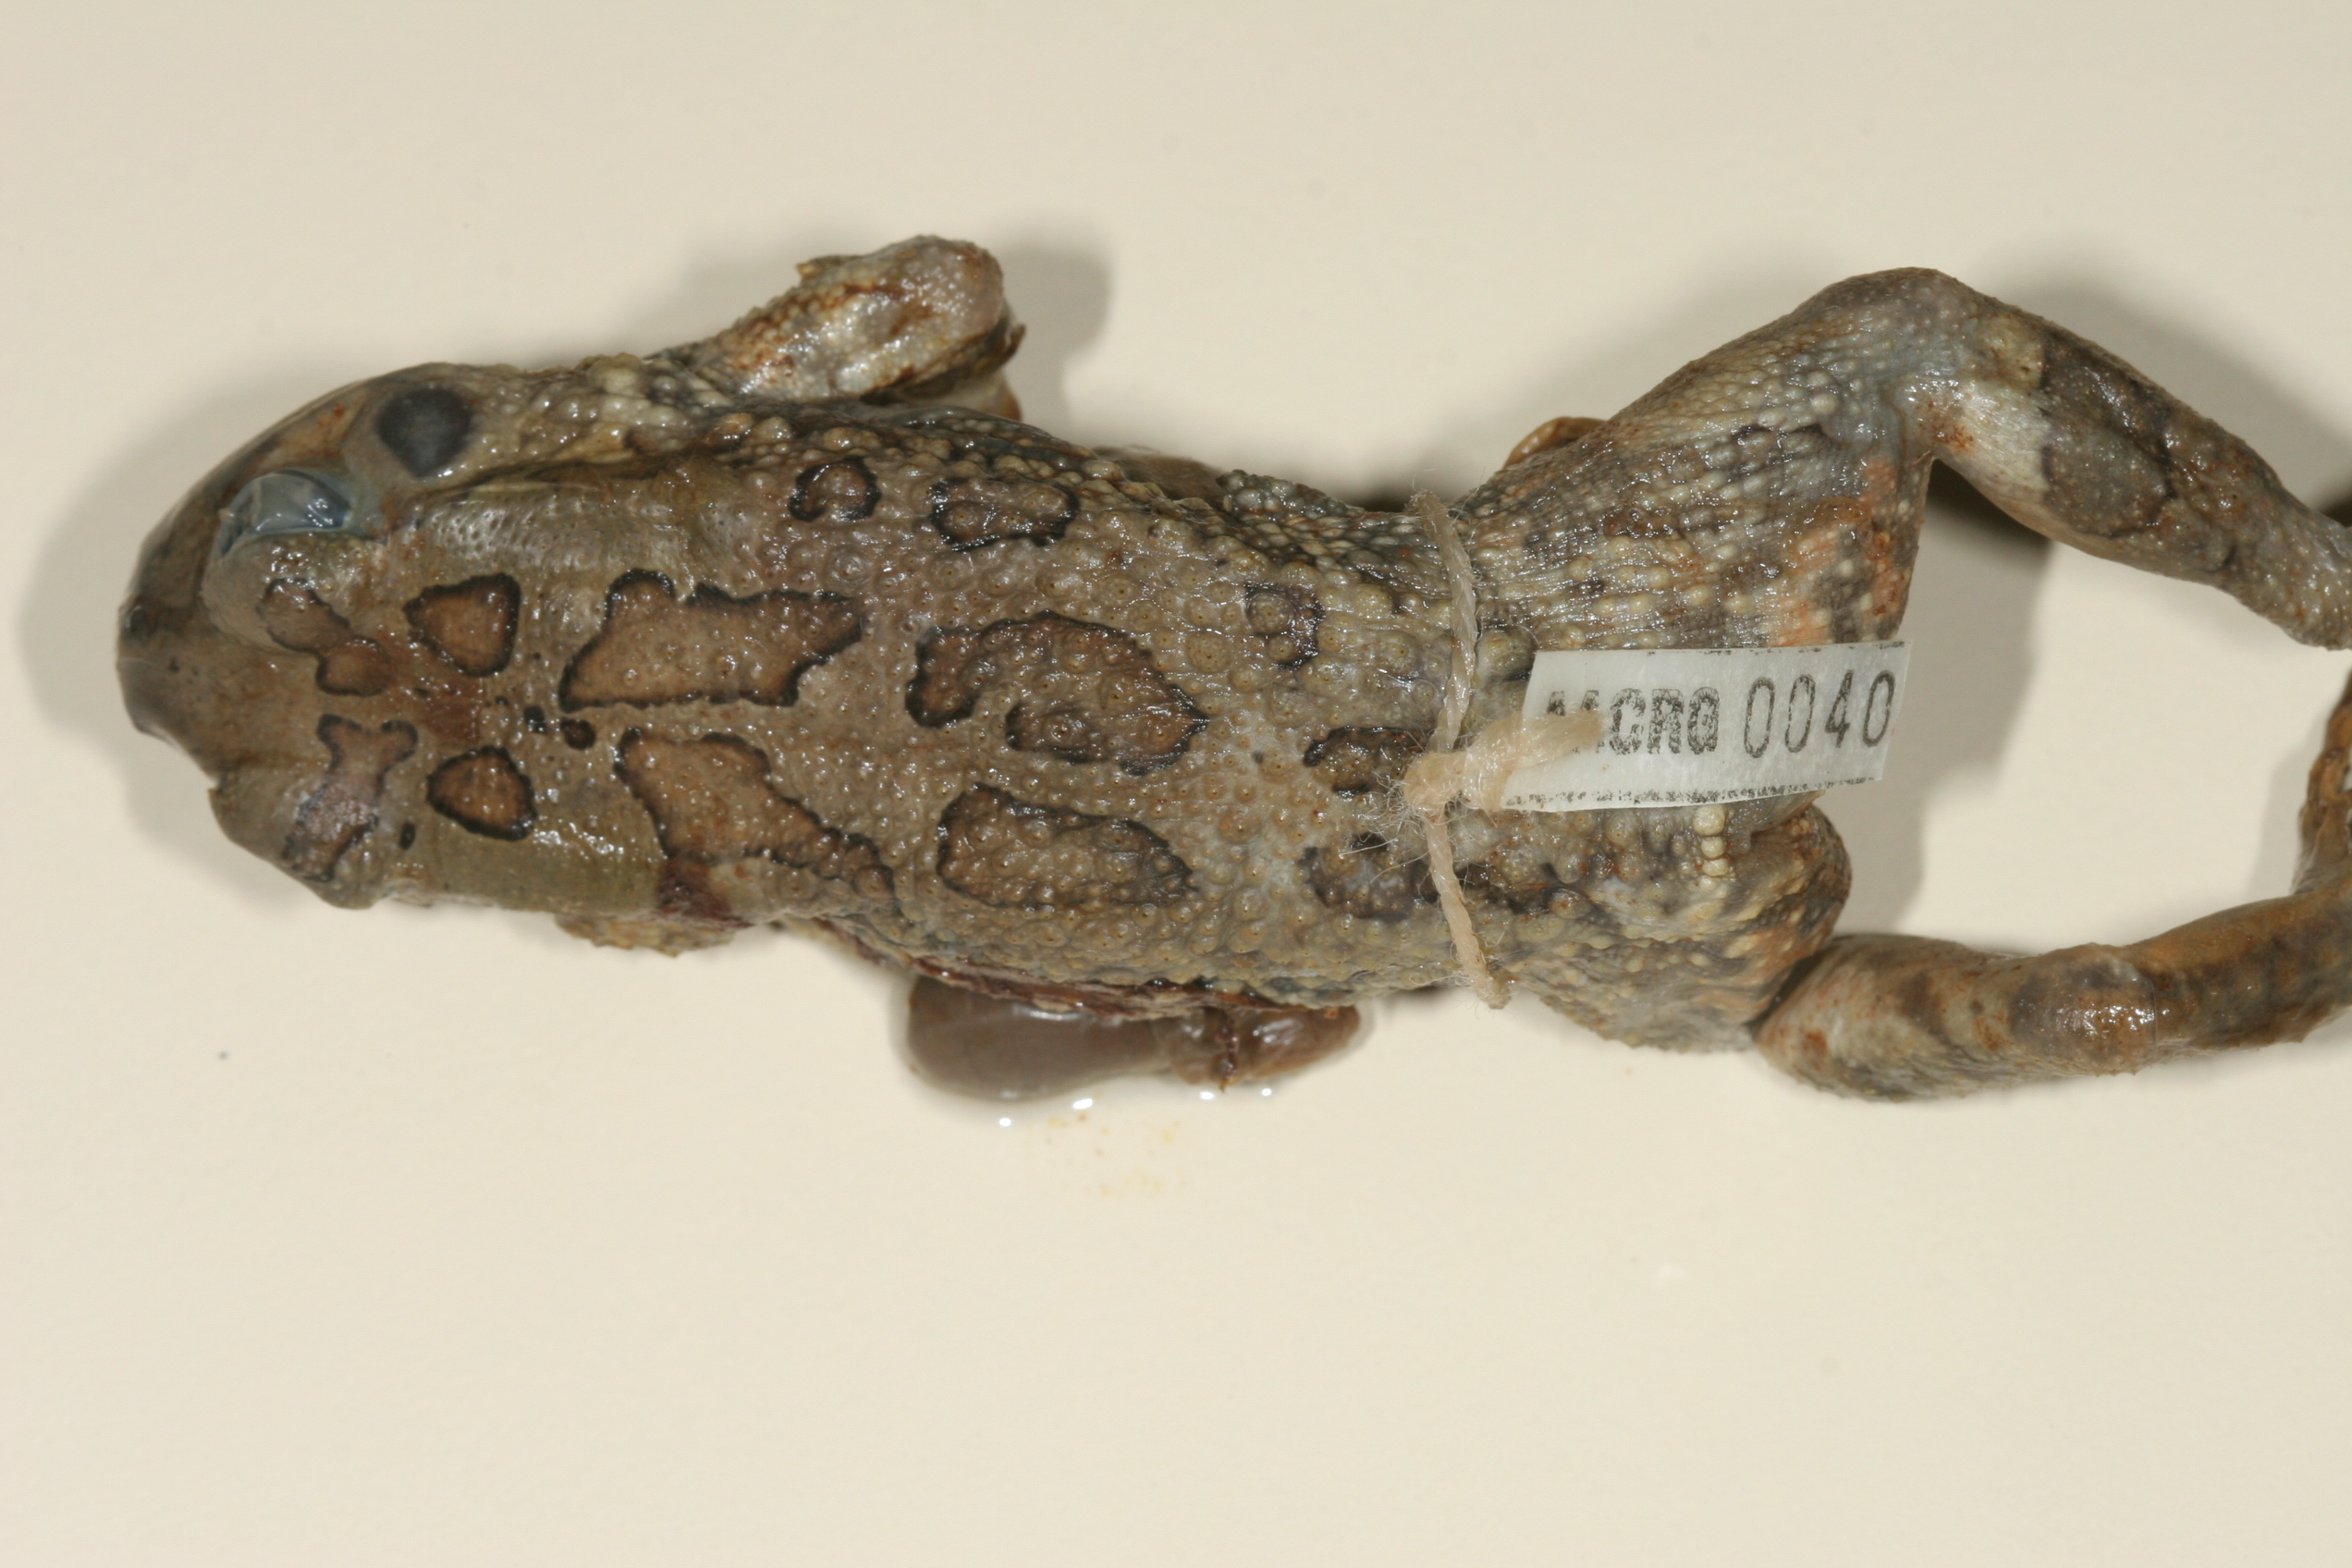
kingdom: Animalia
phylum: Chordata
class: Amphibia
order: Anura
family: Bufonidae
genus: Sclerophrys
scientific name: Sclerophrys garmani
